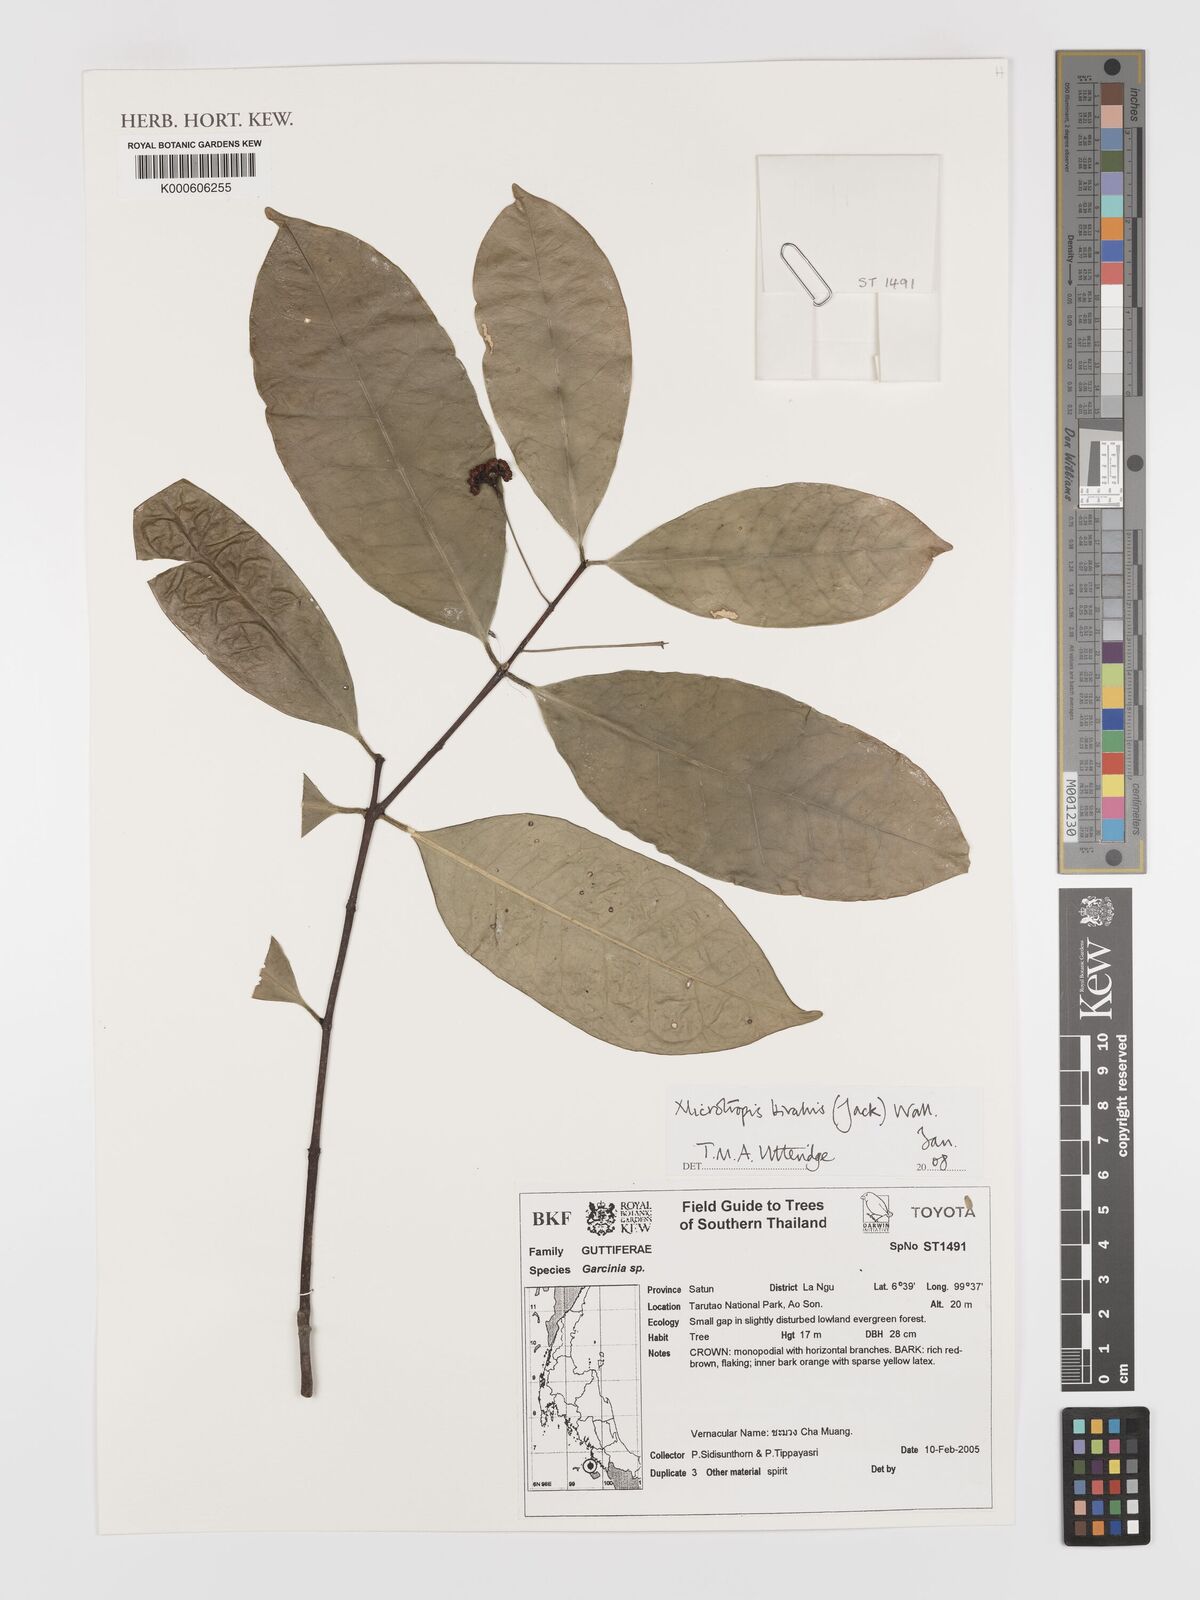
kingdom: Plantae
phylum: Tracheophyta
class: Magnoliopsida
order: Celastrales
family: Celastraceae
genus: Microtropis
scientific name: Microtropis bivalvis
